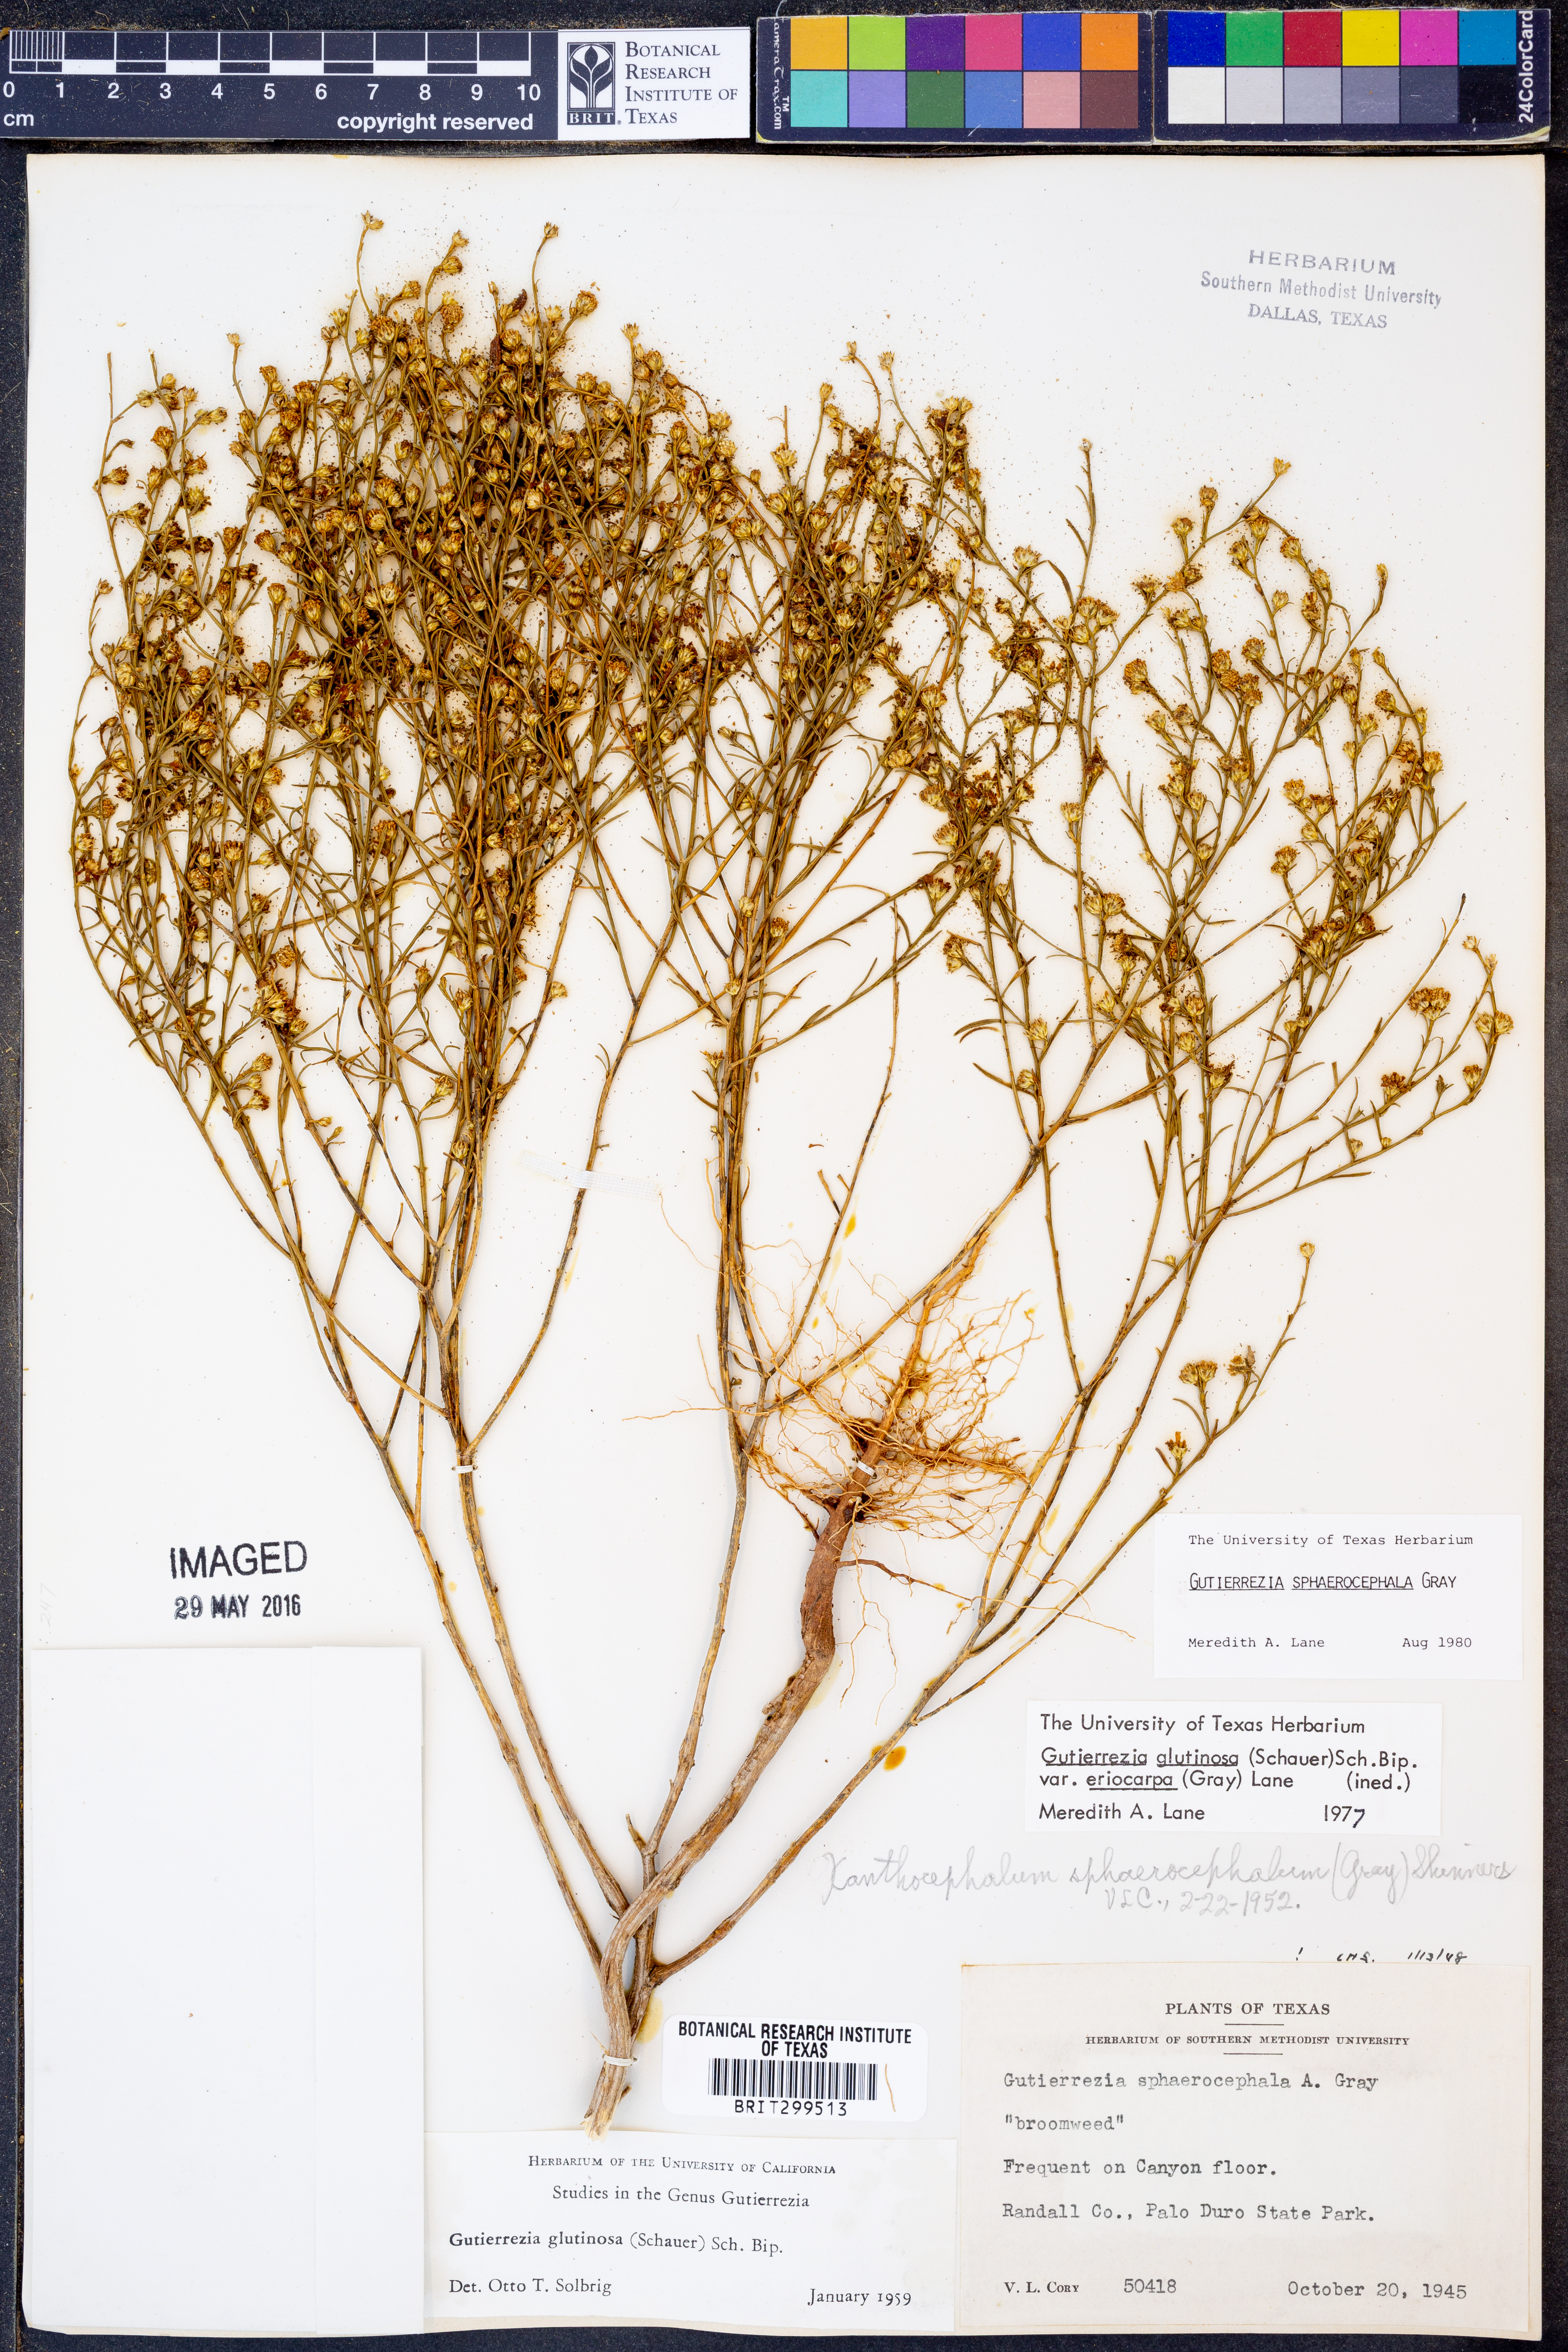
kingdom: Plantae
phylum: Tracheophyta
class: Magnoliopsida
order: Asterales
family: Asteraceae
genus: Gutierrezia
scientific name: Gutierrezia sphaerocephala
